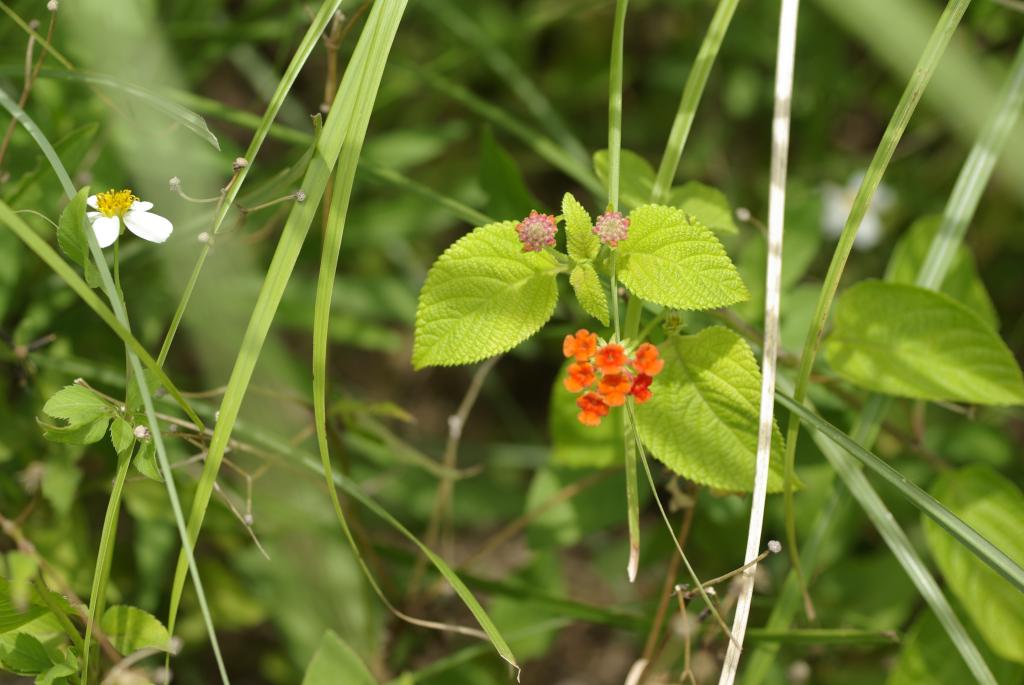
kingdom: Plantae
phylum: Tracheophyta
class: Magnoliopsida
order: Lamiales
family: Verbenaceae
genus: Lantana
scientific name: Lantana camara
